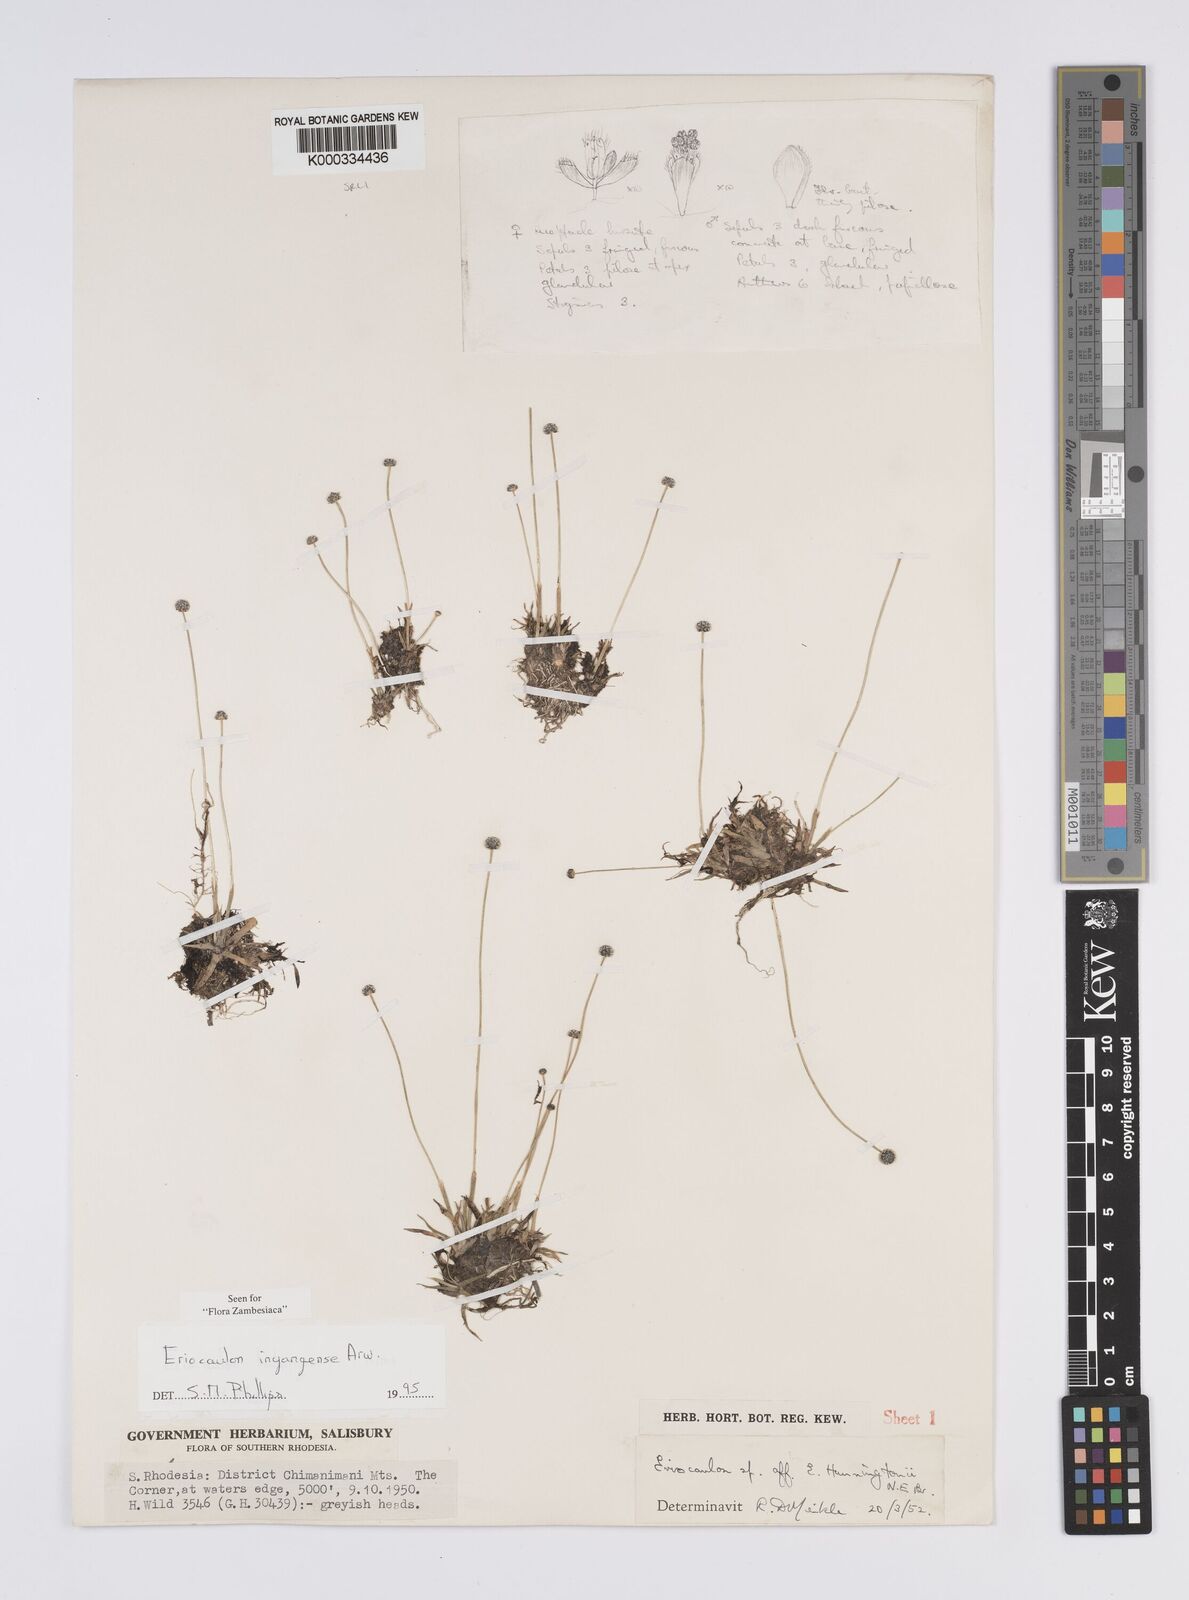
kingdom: Plantae
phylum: Tracheophyta
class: Liliopsida
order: Poales
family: Eriocaulaceae
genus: Eriocaulon
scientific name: Eriocaulon inyangense
